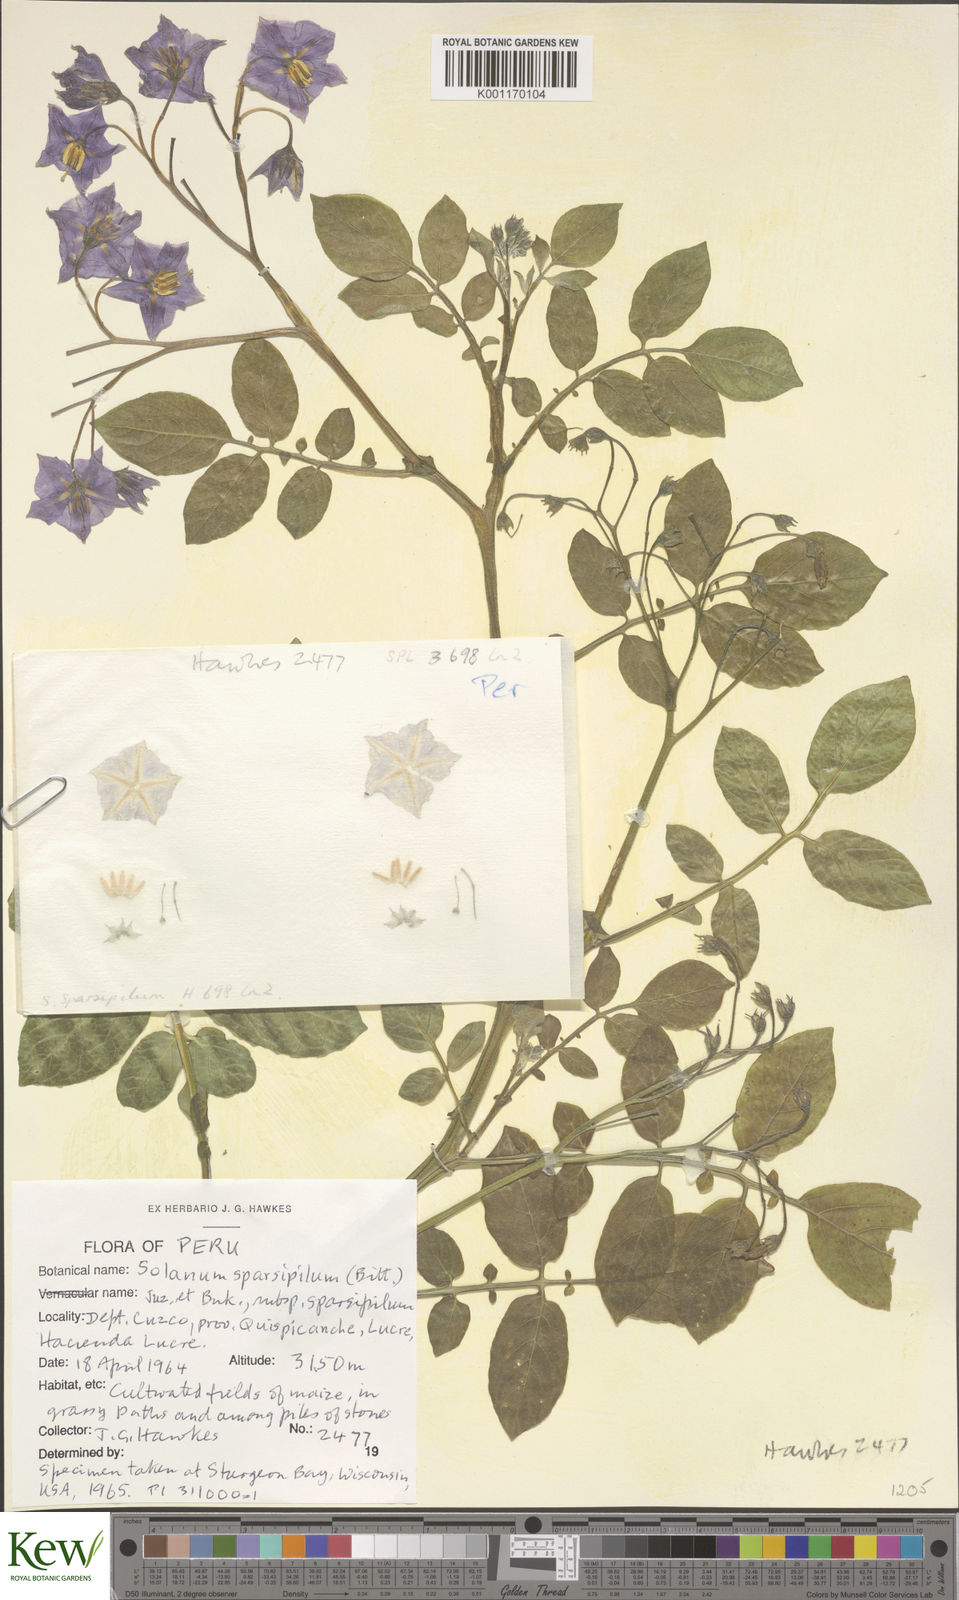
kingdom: Plantae
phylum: Tracheophyta
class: Magnoliopsida
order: Solanales
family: Solanaceae
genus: Solanum
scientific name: Solanum brevicaule
